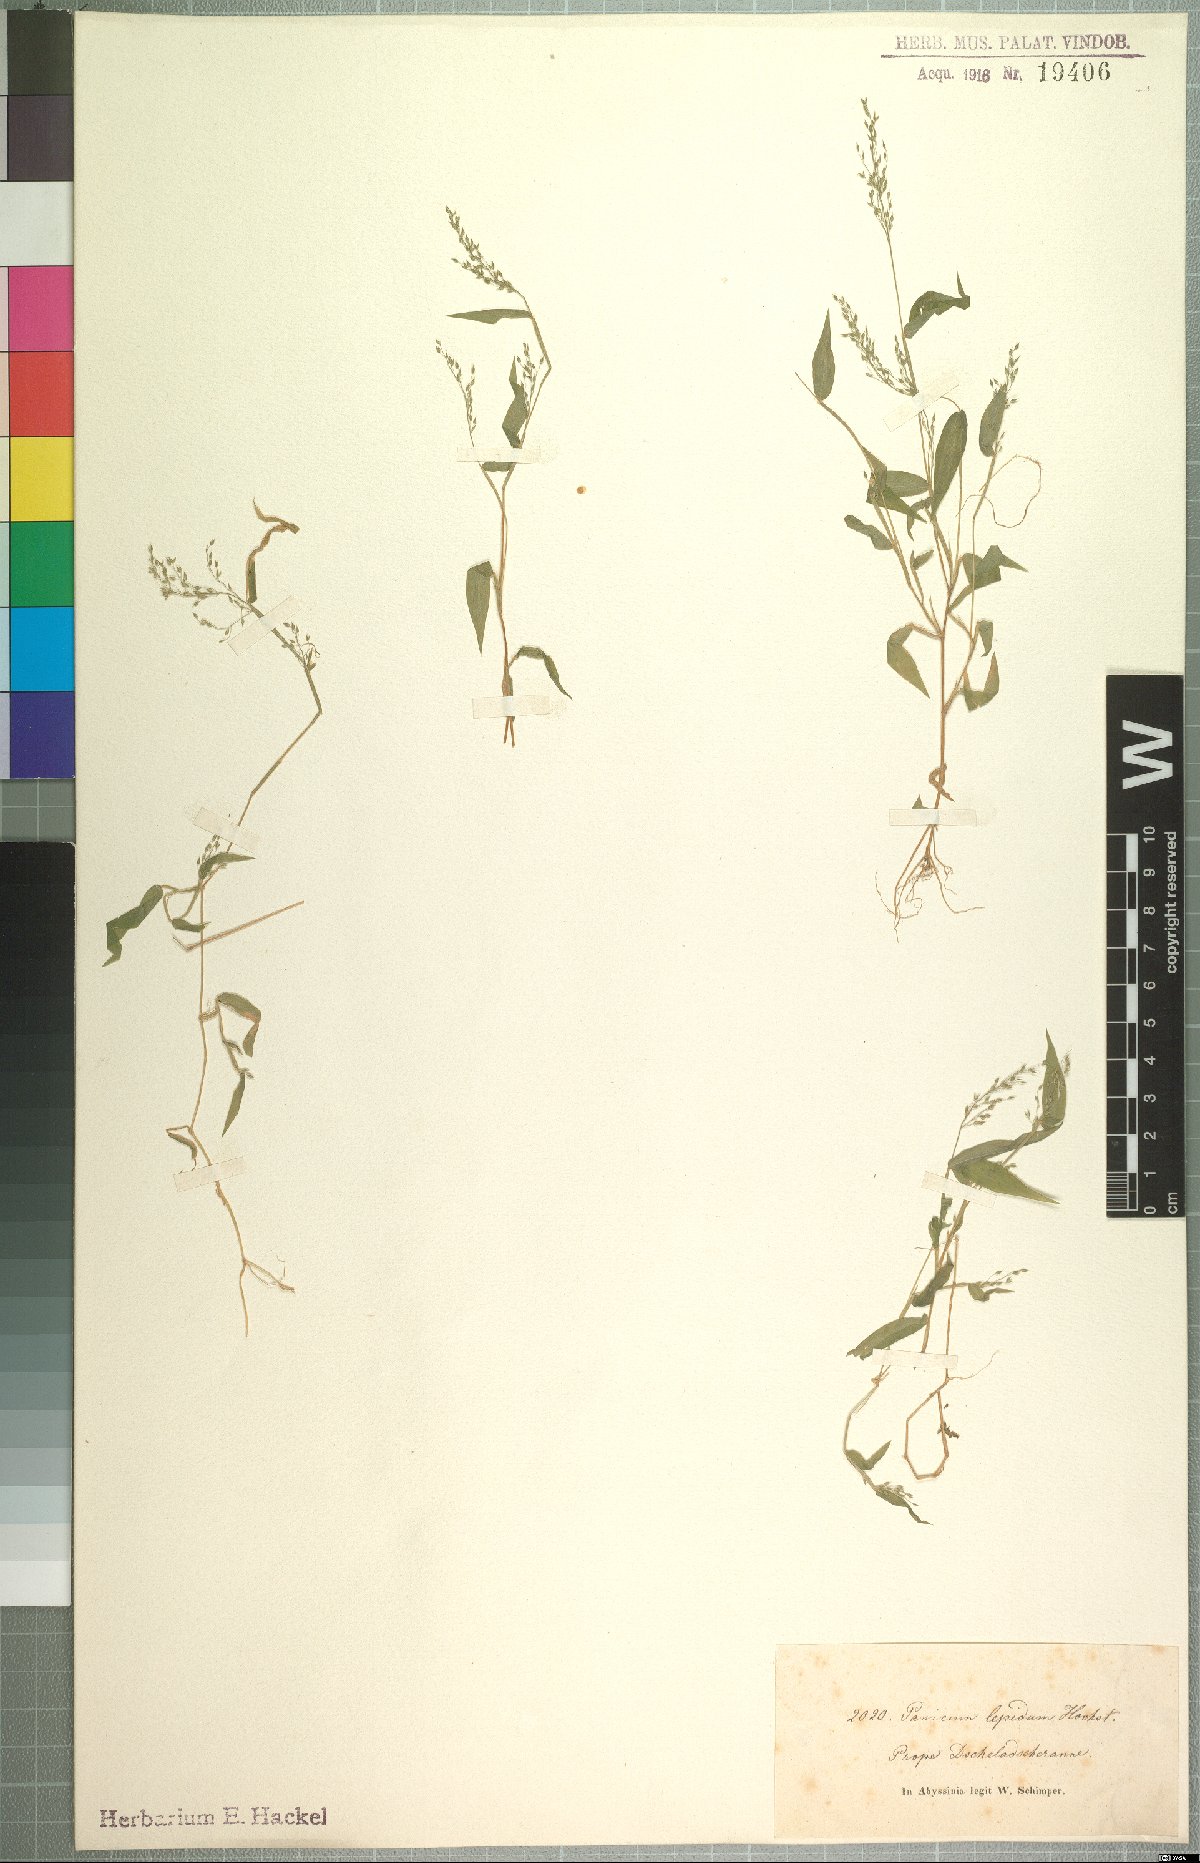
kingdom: Plantae
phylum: Tracheophyta
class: Liliopsida
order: Poales
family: Poaceae
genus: Panicum
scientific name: Panicum delicatulum
